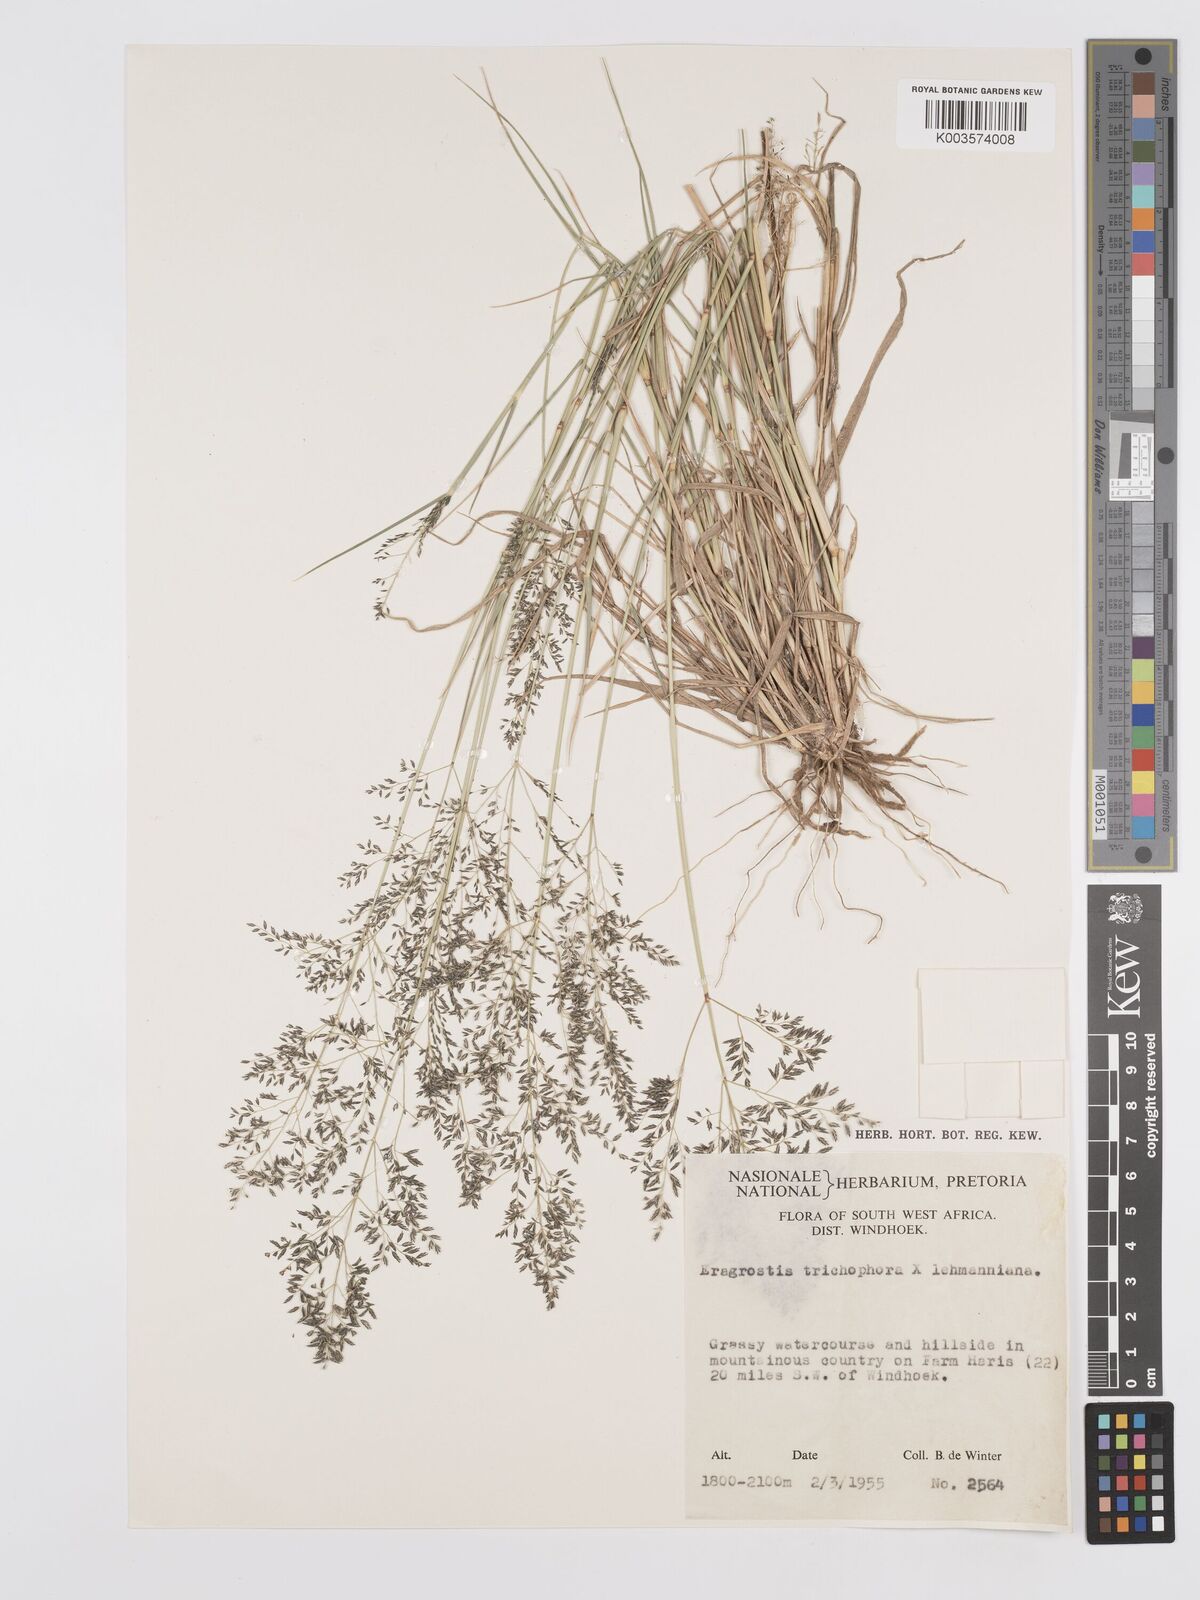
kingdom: Plantae
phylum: Tracheophyta
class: Liliopsida
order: Poales
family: Poaceae
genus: Eragrostis
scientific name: Eragrostis cylindriflora
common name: Cylinderflower lovegrass
